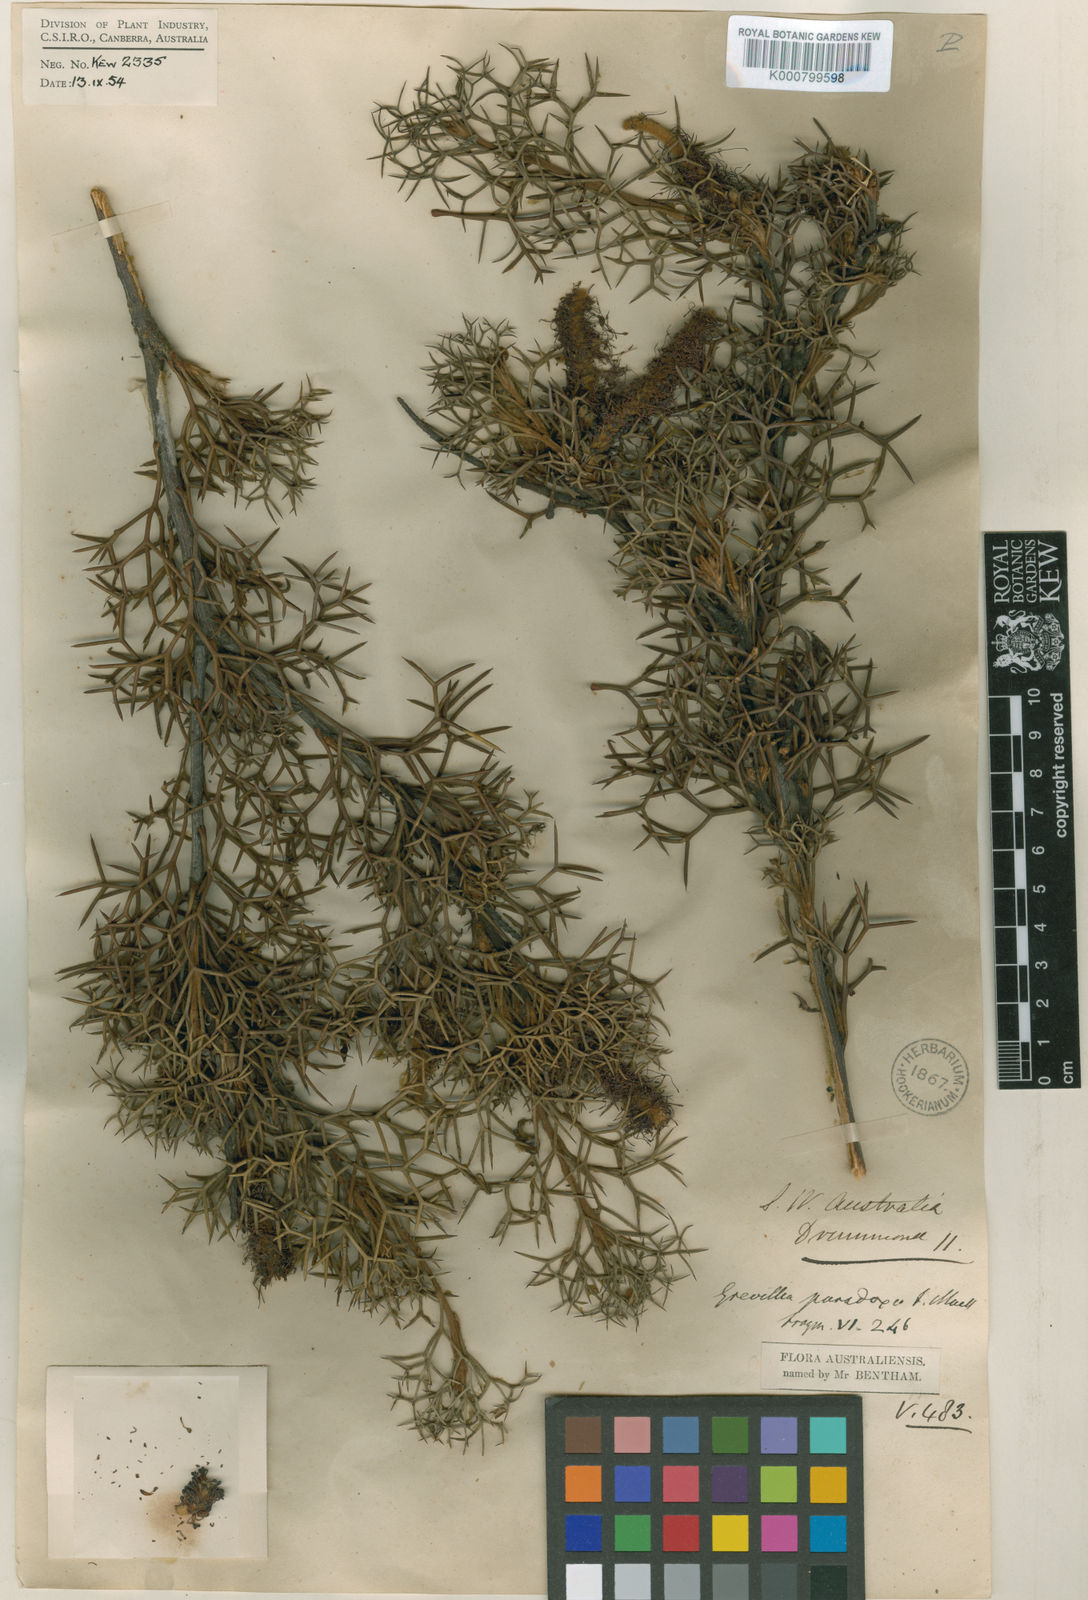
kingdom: Plantae
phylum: Tracheophyta
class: Magnoliopsida
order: Proteales
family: Proteaceae
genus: Grevillea
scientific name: Grevillea paradoxa
